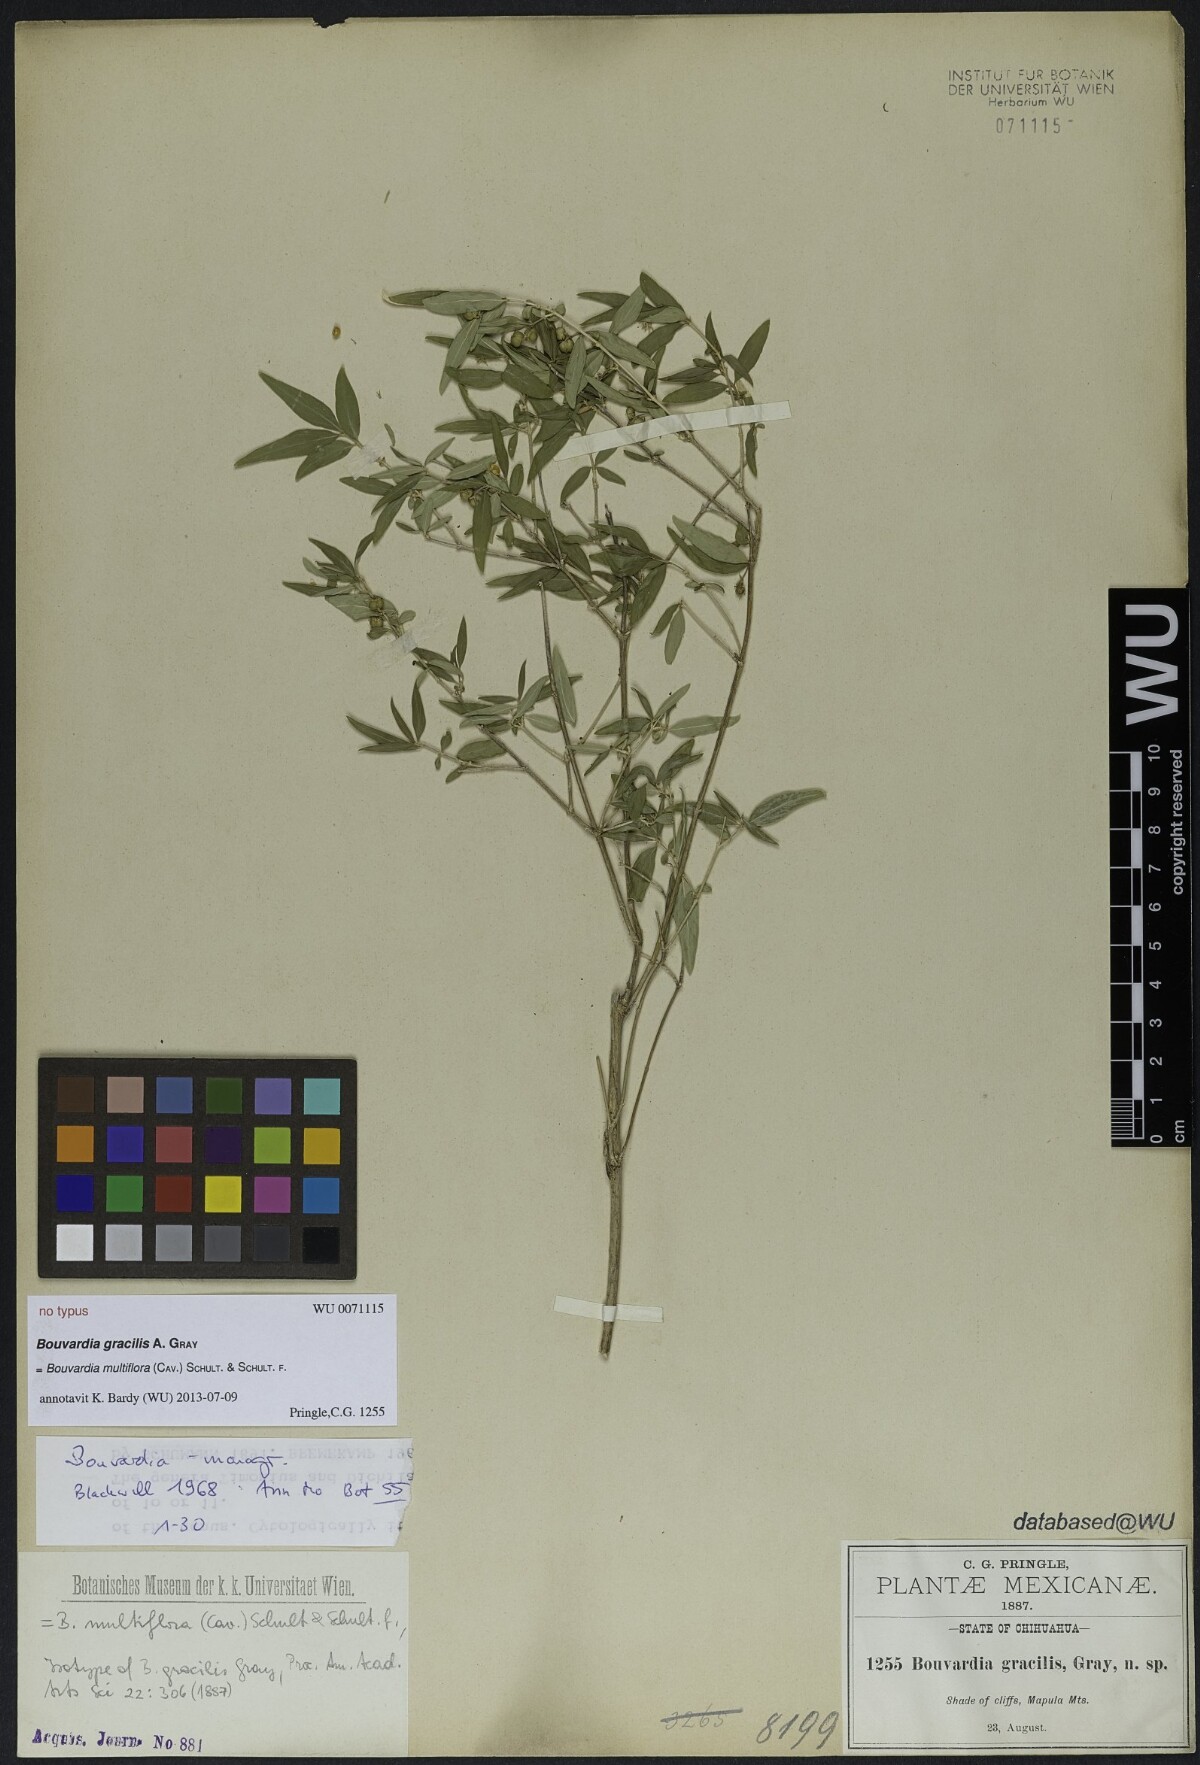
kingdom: Plantae
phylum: Tracheophyta
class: Magnoliopsida
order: Gentianales
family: Rubiaceae
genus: Bouvardia
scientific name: Bouvardia multiflora
